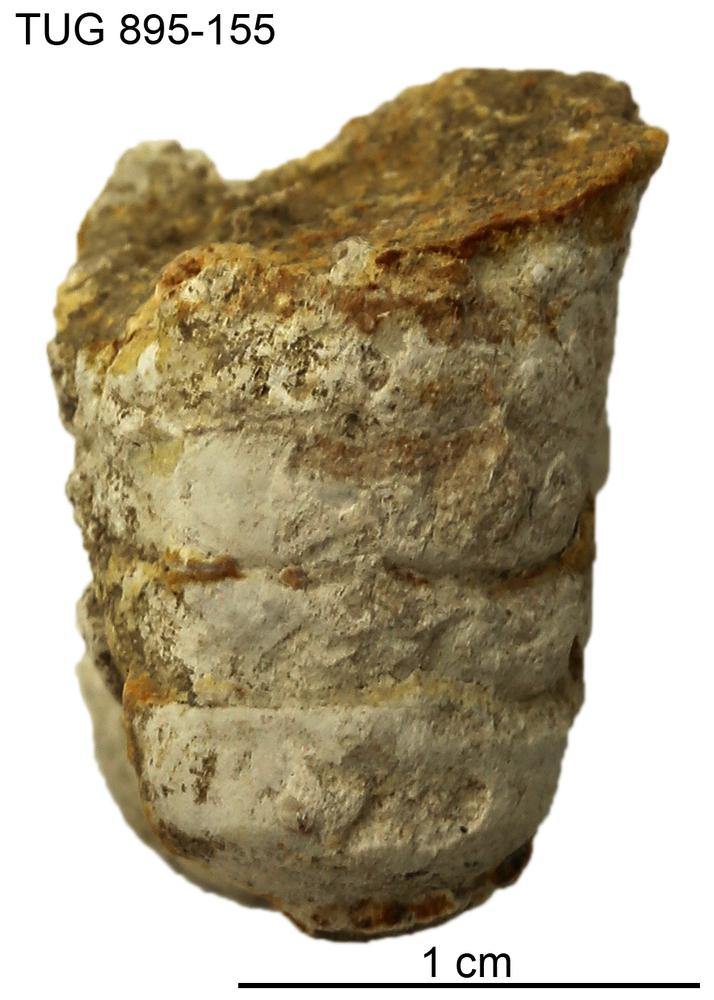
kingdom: Animalia
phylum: Mollusca
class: Cephalopoda
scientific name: Cephalopoda
